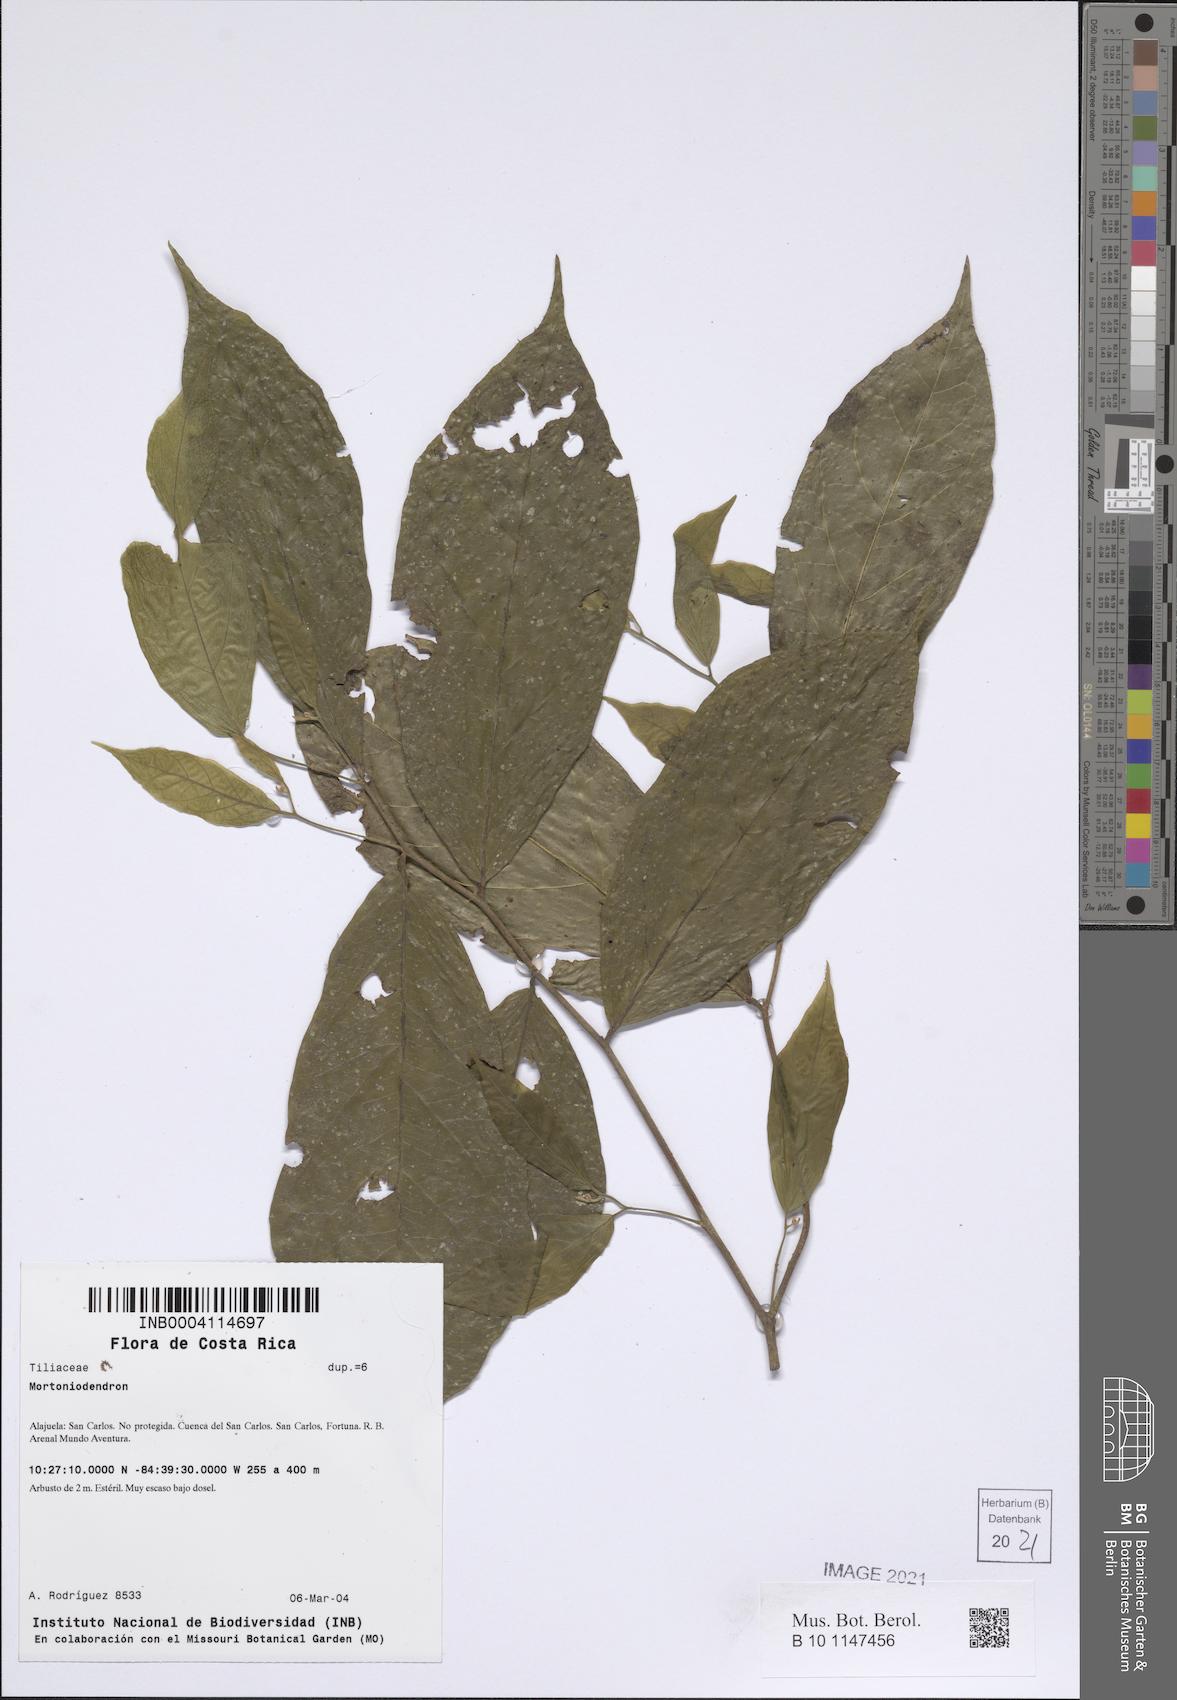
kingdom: Plantae
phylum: Tracheophyta
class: Magnoliopsida
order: Malvales
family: Malvaceae
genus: Mortoniodendron
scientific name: Mortoniodendron
